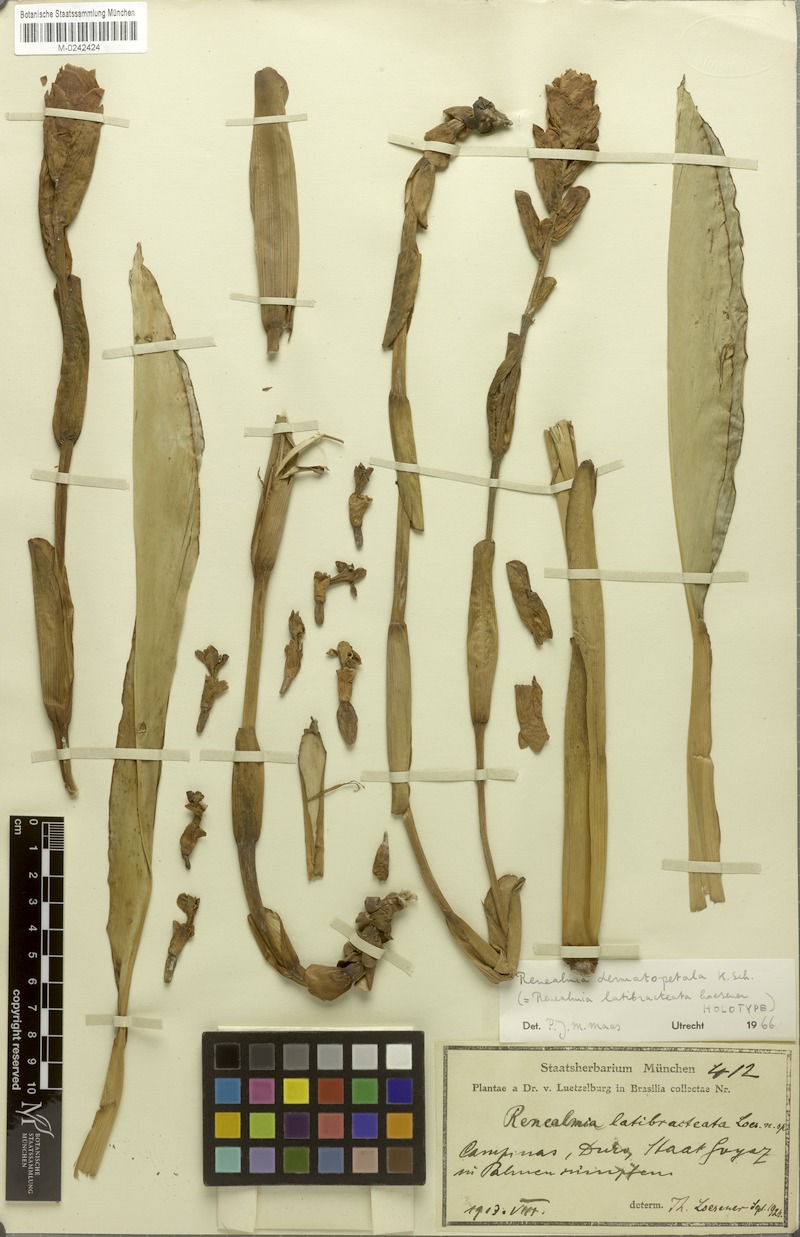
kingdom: Plantae
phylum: Tracheophyta
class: Liliopsida
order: Zingiberales
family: Zingiberaceae
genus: Renealmia
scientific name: Renealmia dermatopetala
